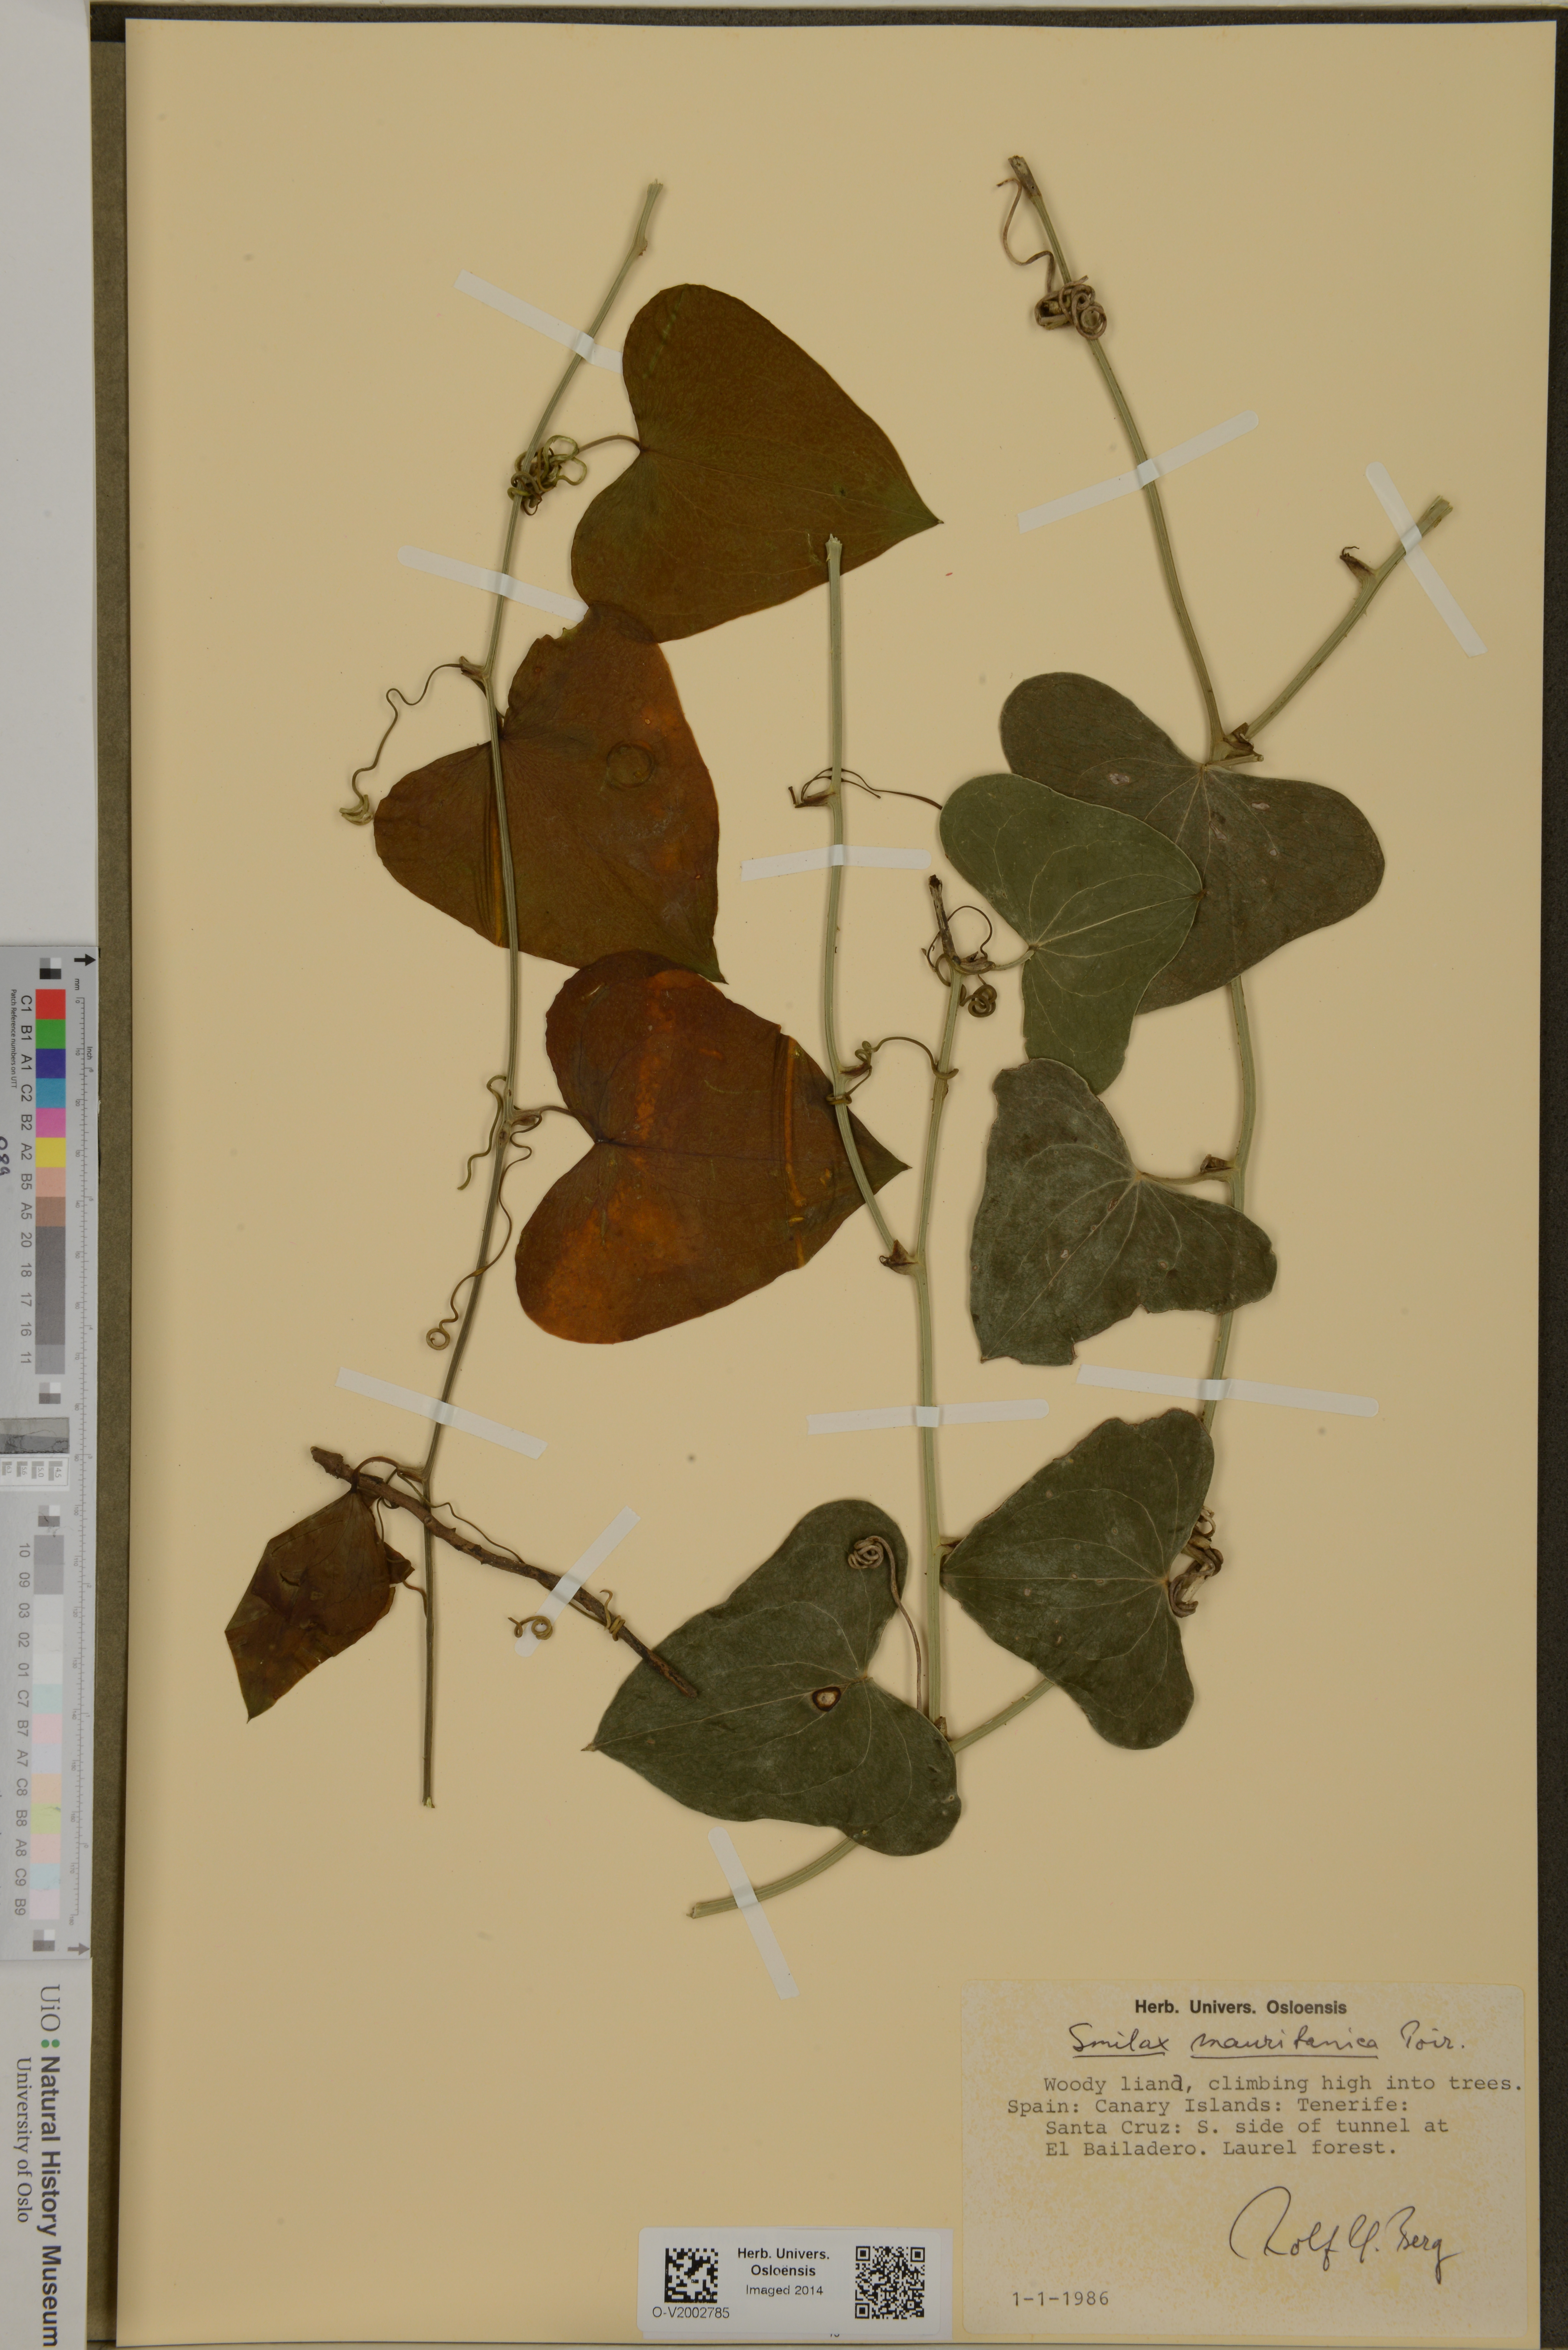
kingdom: Plantae
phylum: Tracheophyta
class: Liliopsida
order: Liliales
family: Smilacaceae
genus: Smilax
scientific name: Smilax aspera
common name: Common smilax
